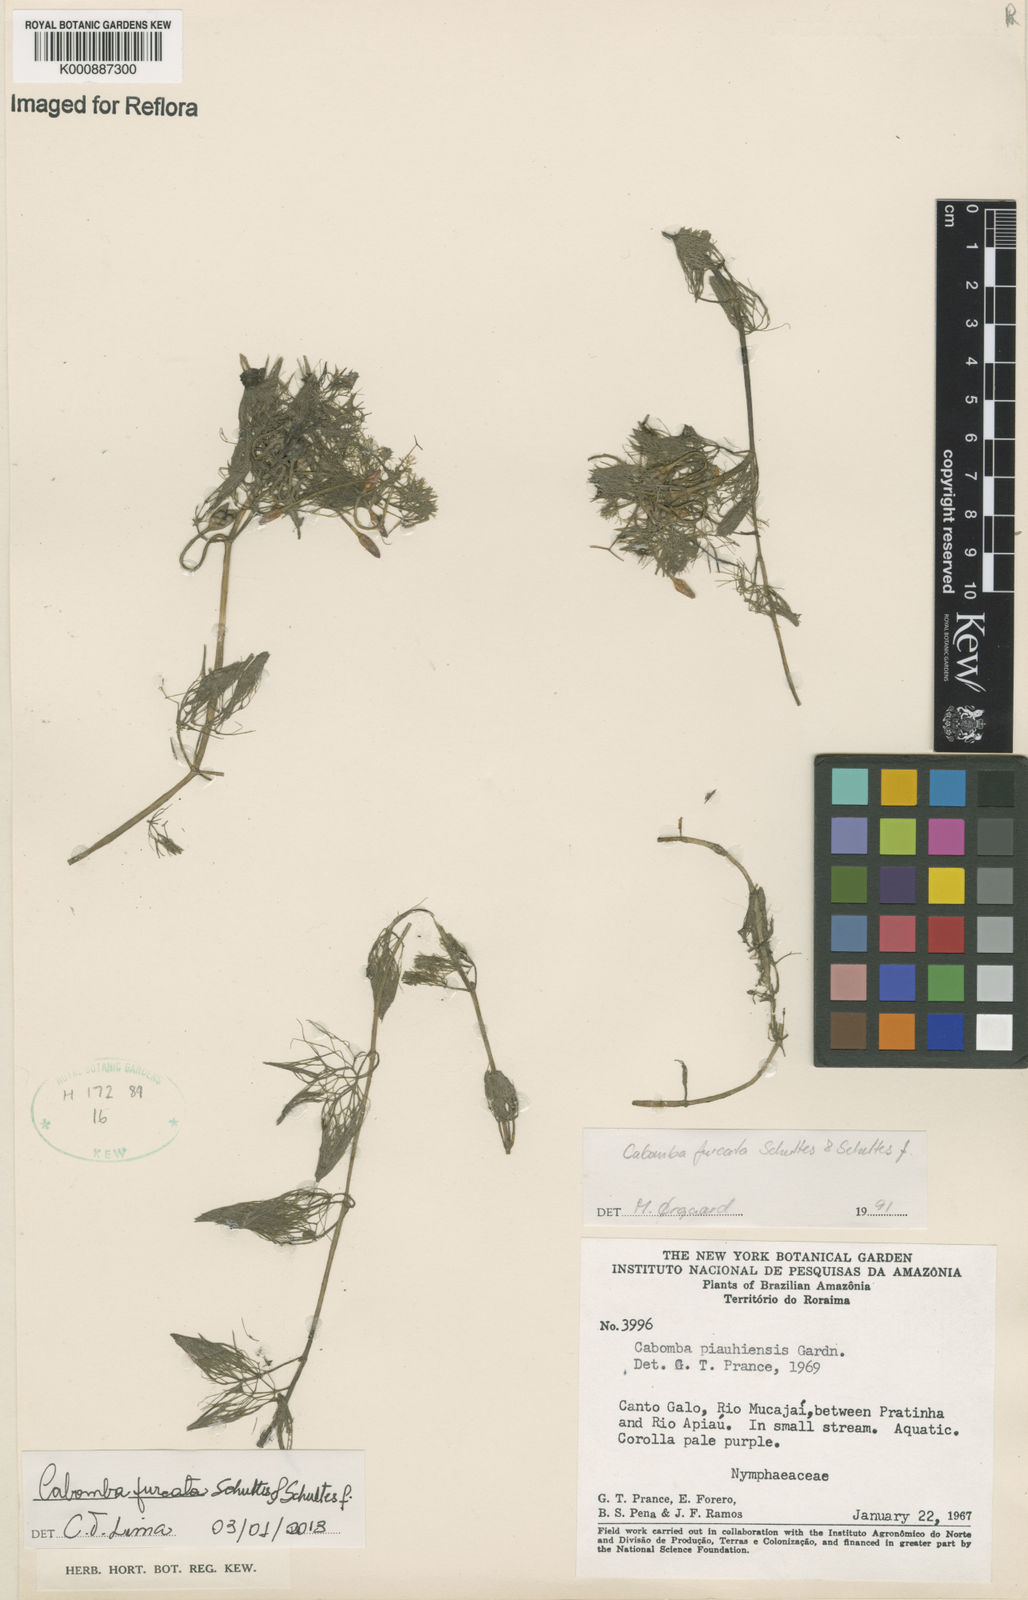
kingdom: Plantae
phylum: Tracheophyta
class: Magnoliopsida
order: Nymphaeales
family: Cabombaceae
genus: Cabomba
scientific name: Cabomba furcata
